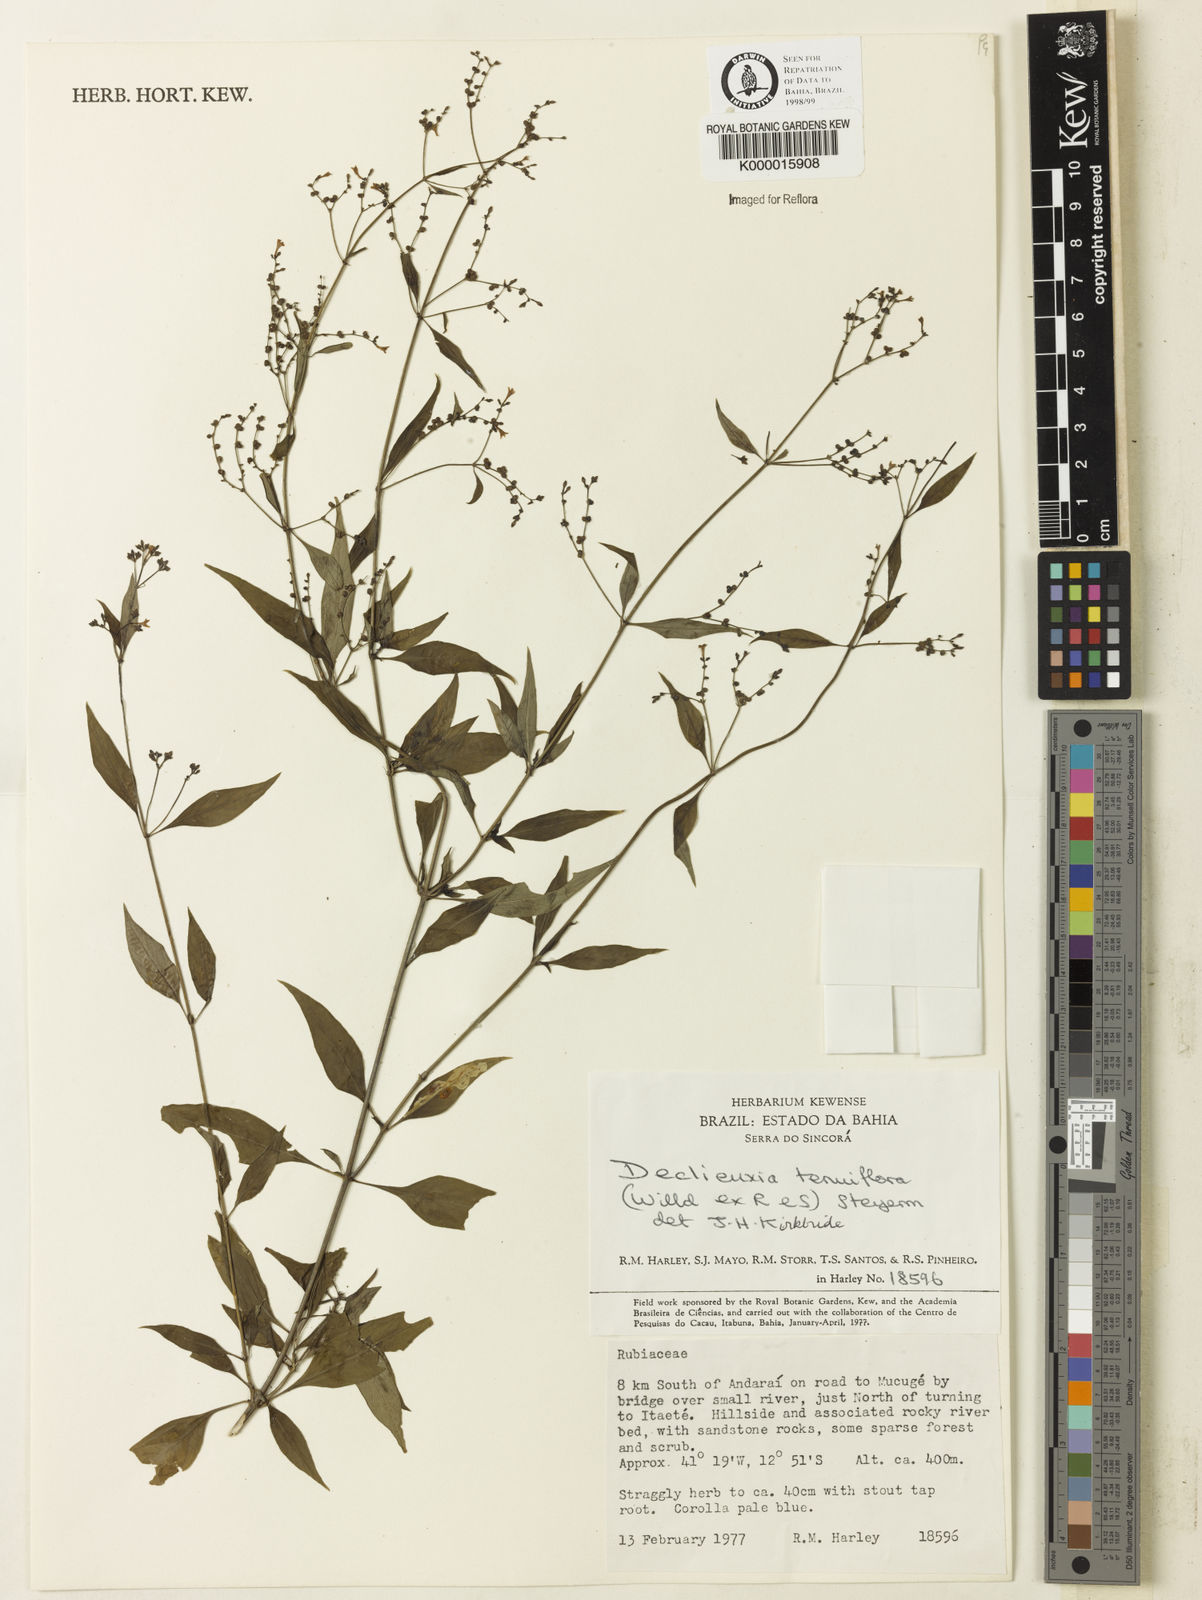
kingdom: Plantae
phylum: Tracheophyta
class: Magnoliopsida
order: Gentianales
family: Rubiaceae
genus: Declieuxia
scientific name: Declieuxia tenuiflora
